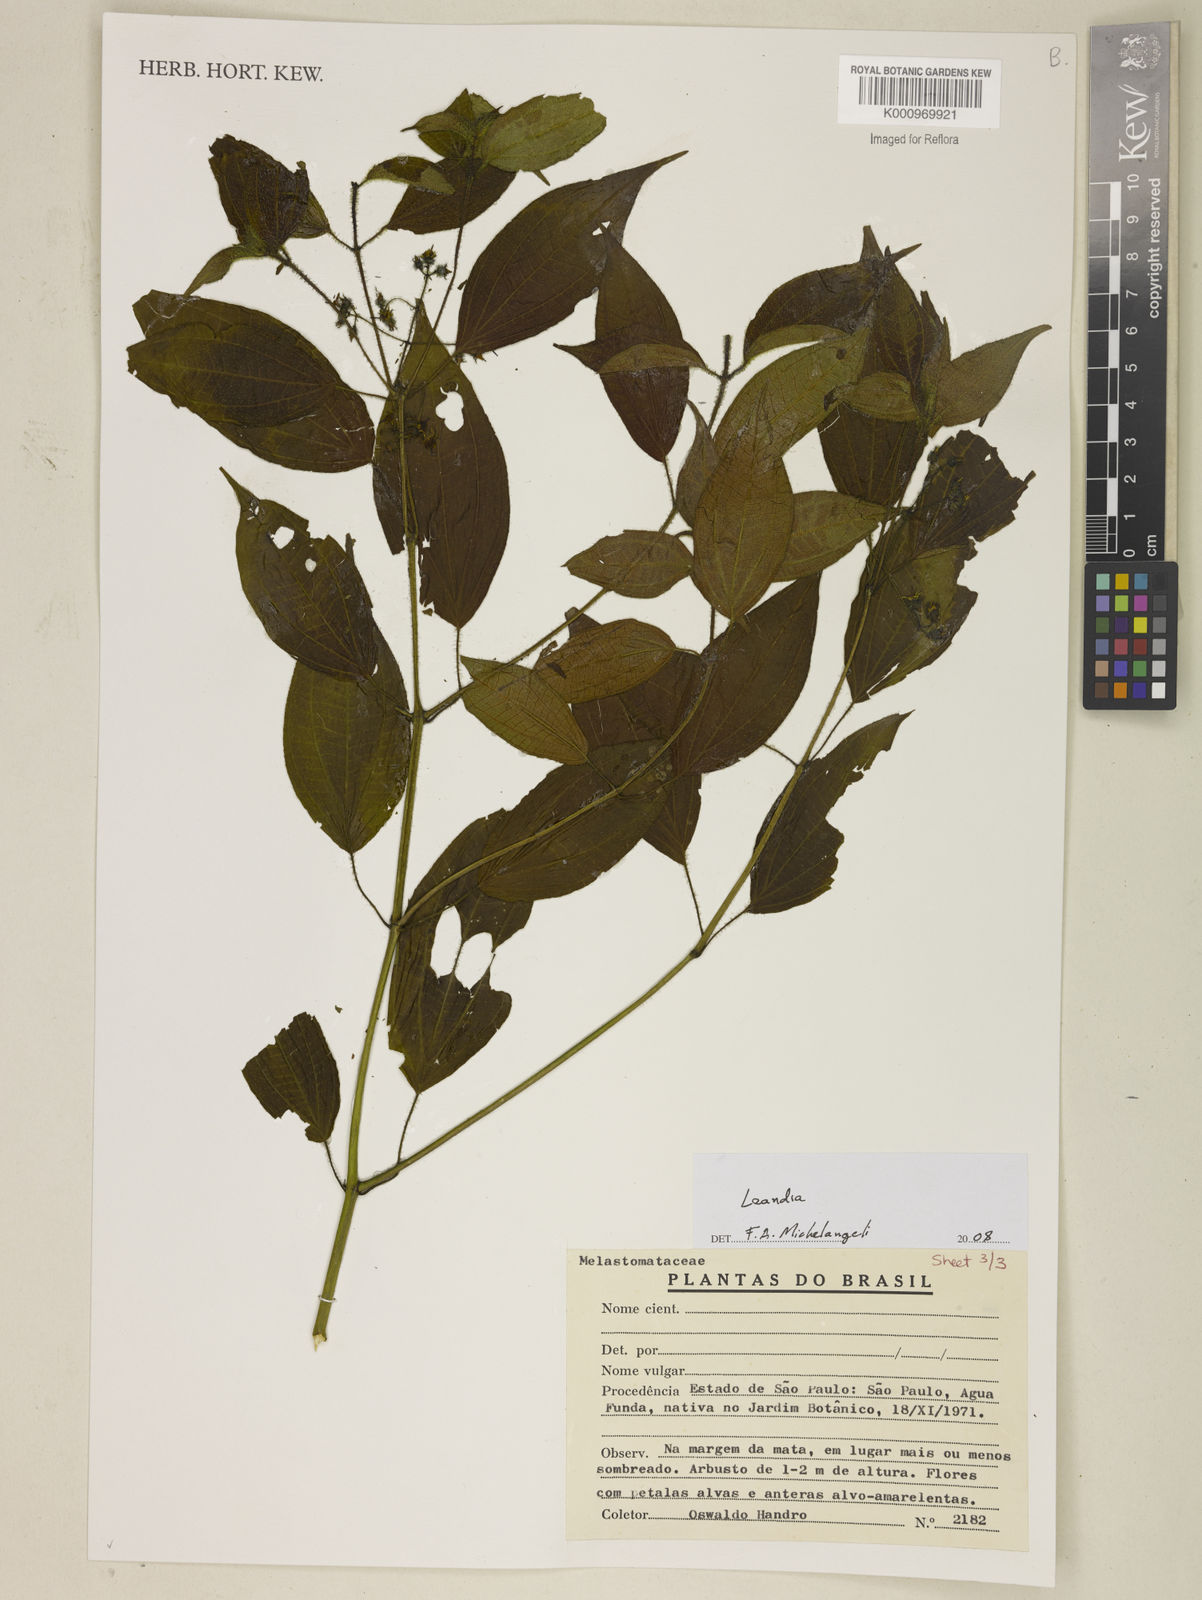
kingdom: Plantae
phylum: Tracheophyta
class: Magnoliopsida
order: Myrtales
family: Melastomataceae
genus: Miconia
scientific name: Miconia
